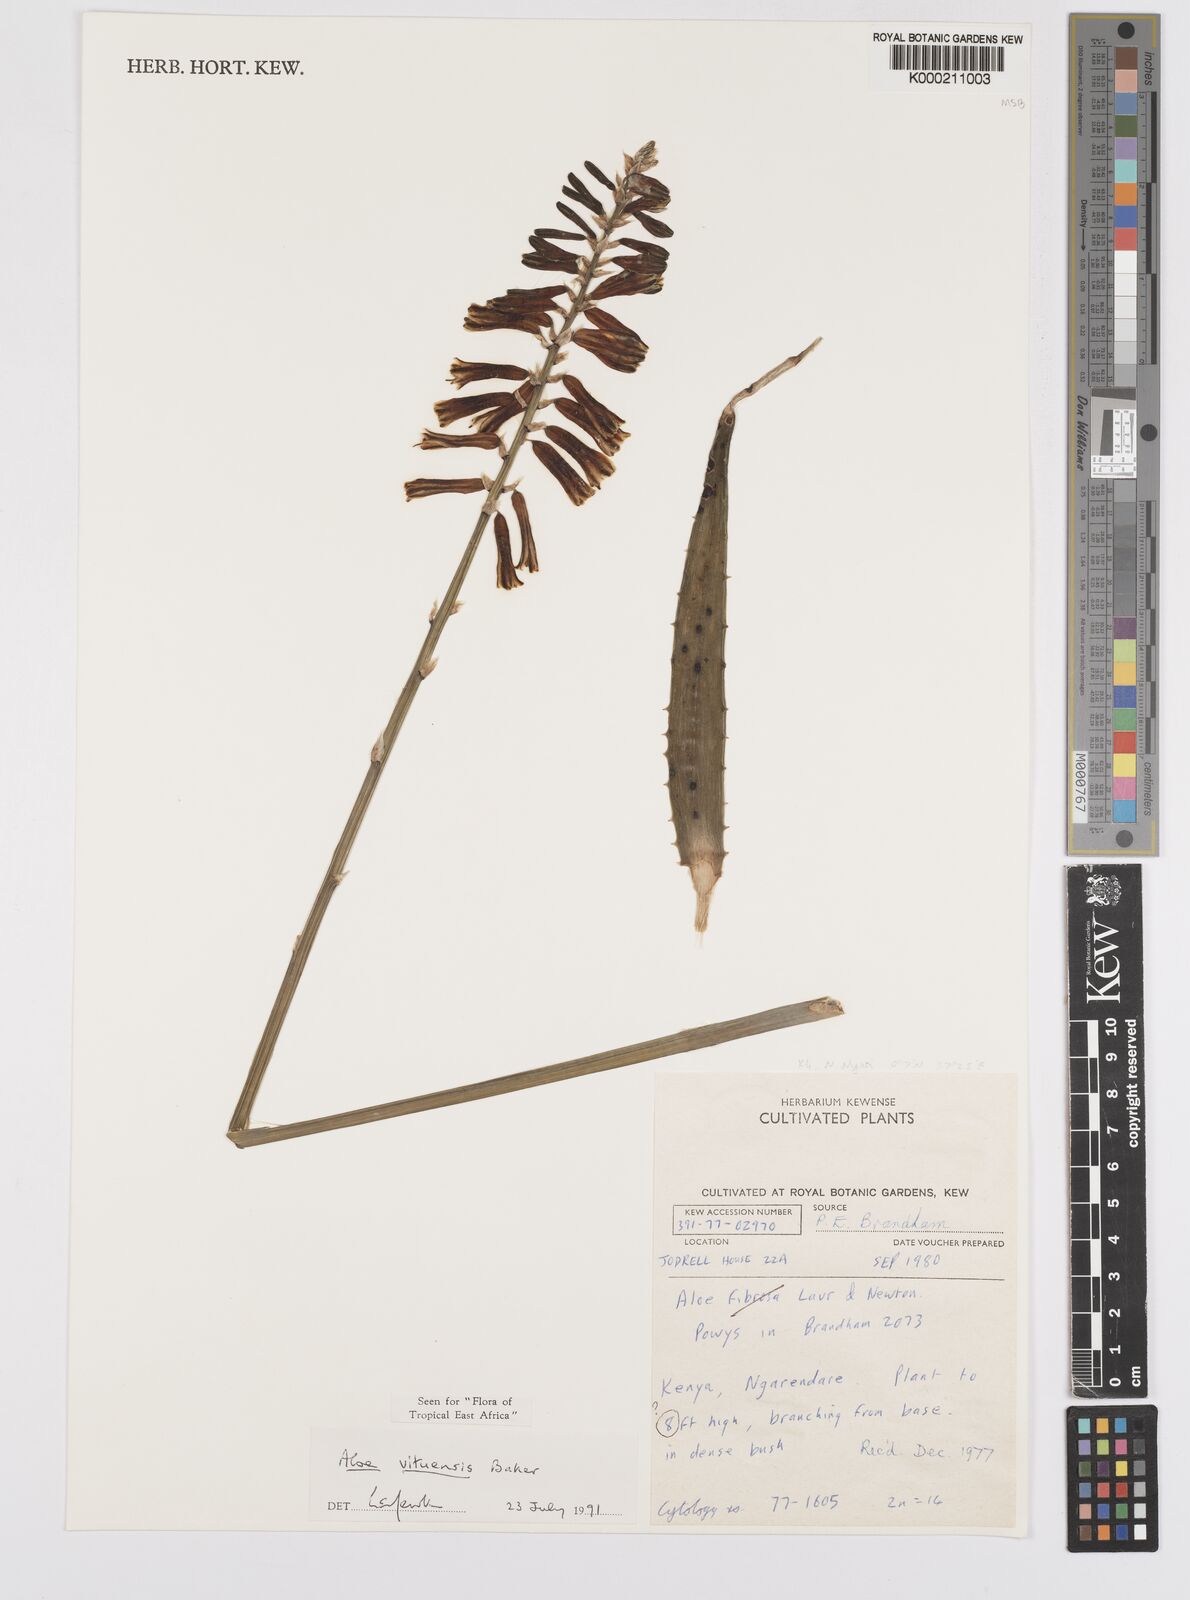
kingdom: Plantae
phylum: Tracheophyta
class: Liliopsida
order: Asparagales
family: Asphodelaceae
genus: Aloe
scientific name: Aloe vituensis
